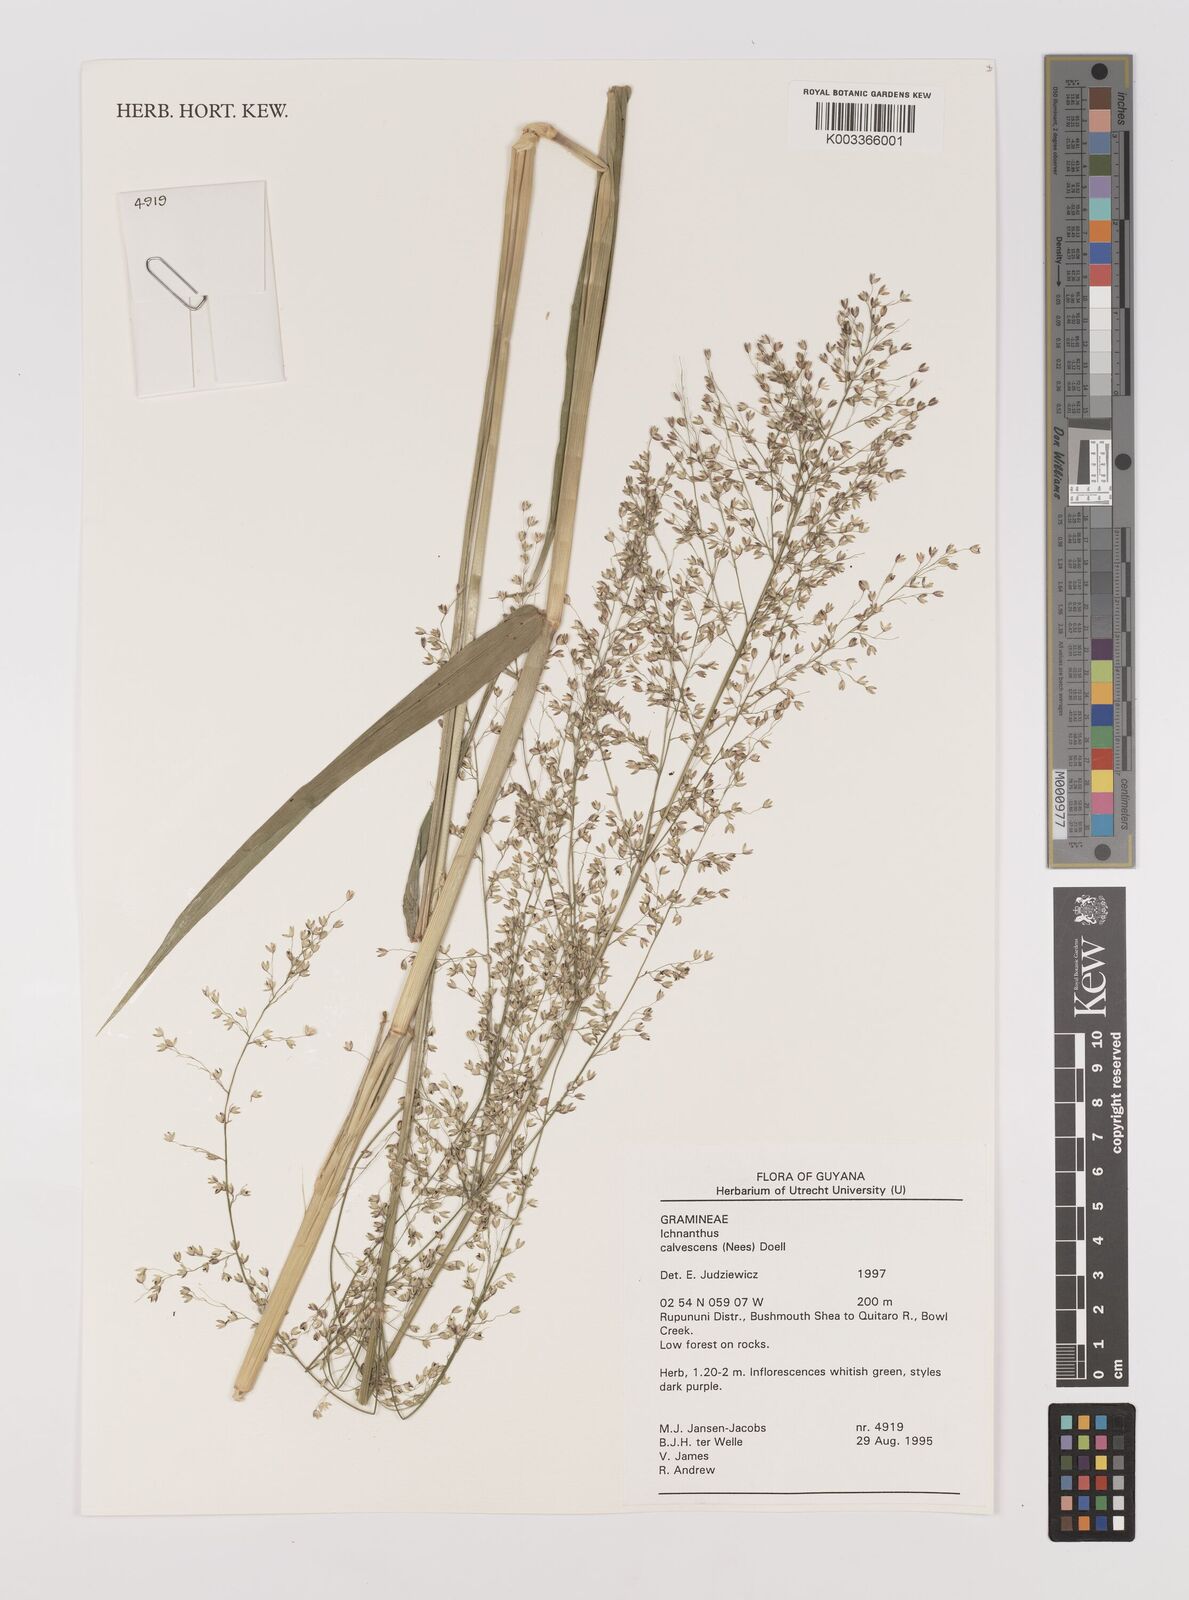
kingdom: Plantae
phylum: Tracheophyta
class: Liliopsida
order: Poales
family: Poaceae
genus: Ichnanthus
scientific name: Ichnanthus calvescens
